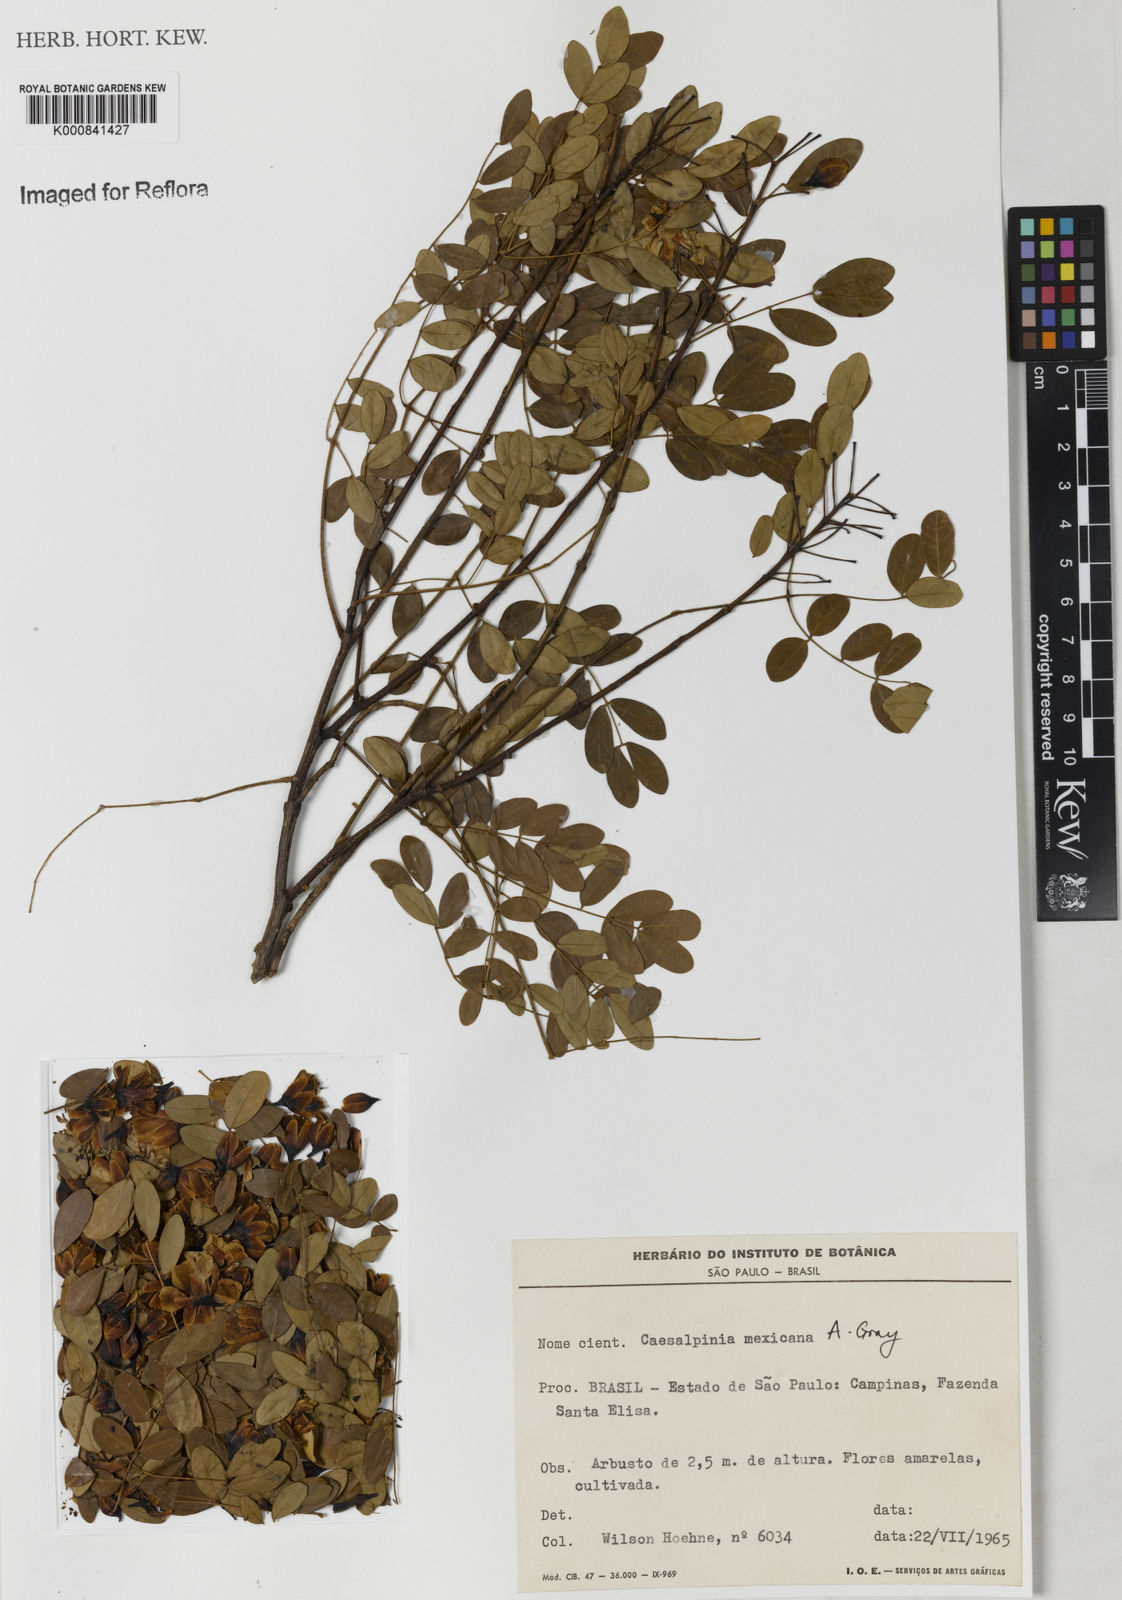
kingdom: Plantae
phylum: Tracheophyta
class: Magnoliopsida
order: Fabales
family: Fabaceae
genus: Erythrostemon
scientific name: Erythrostemon mexicanus
